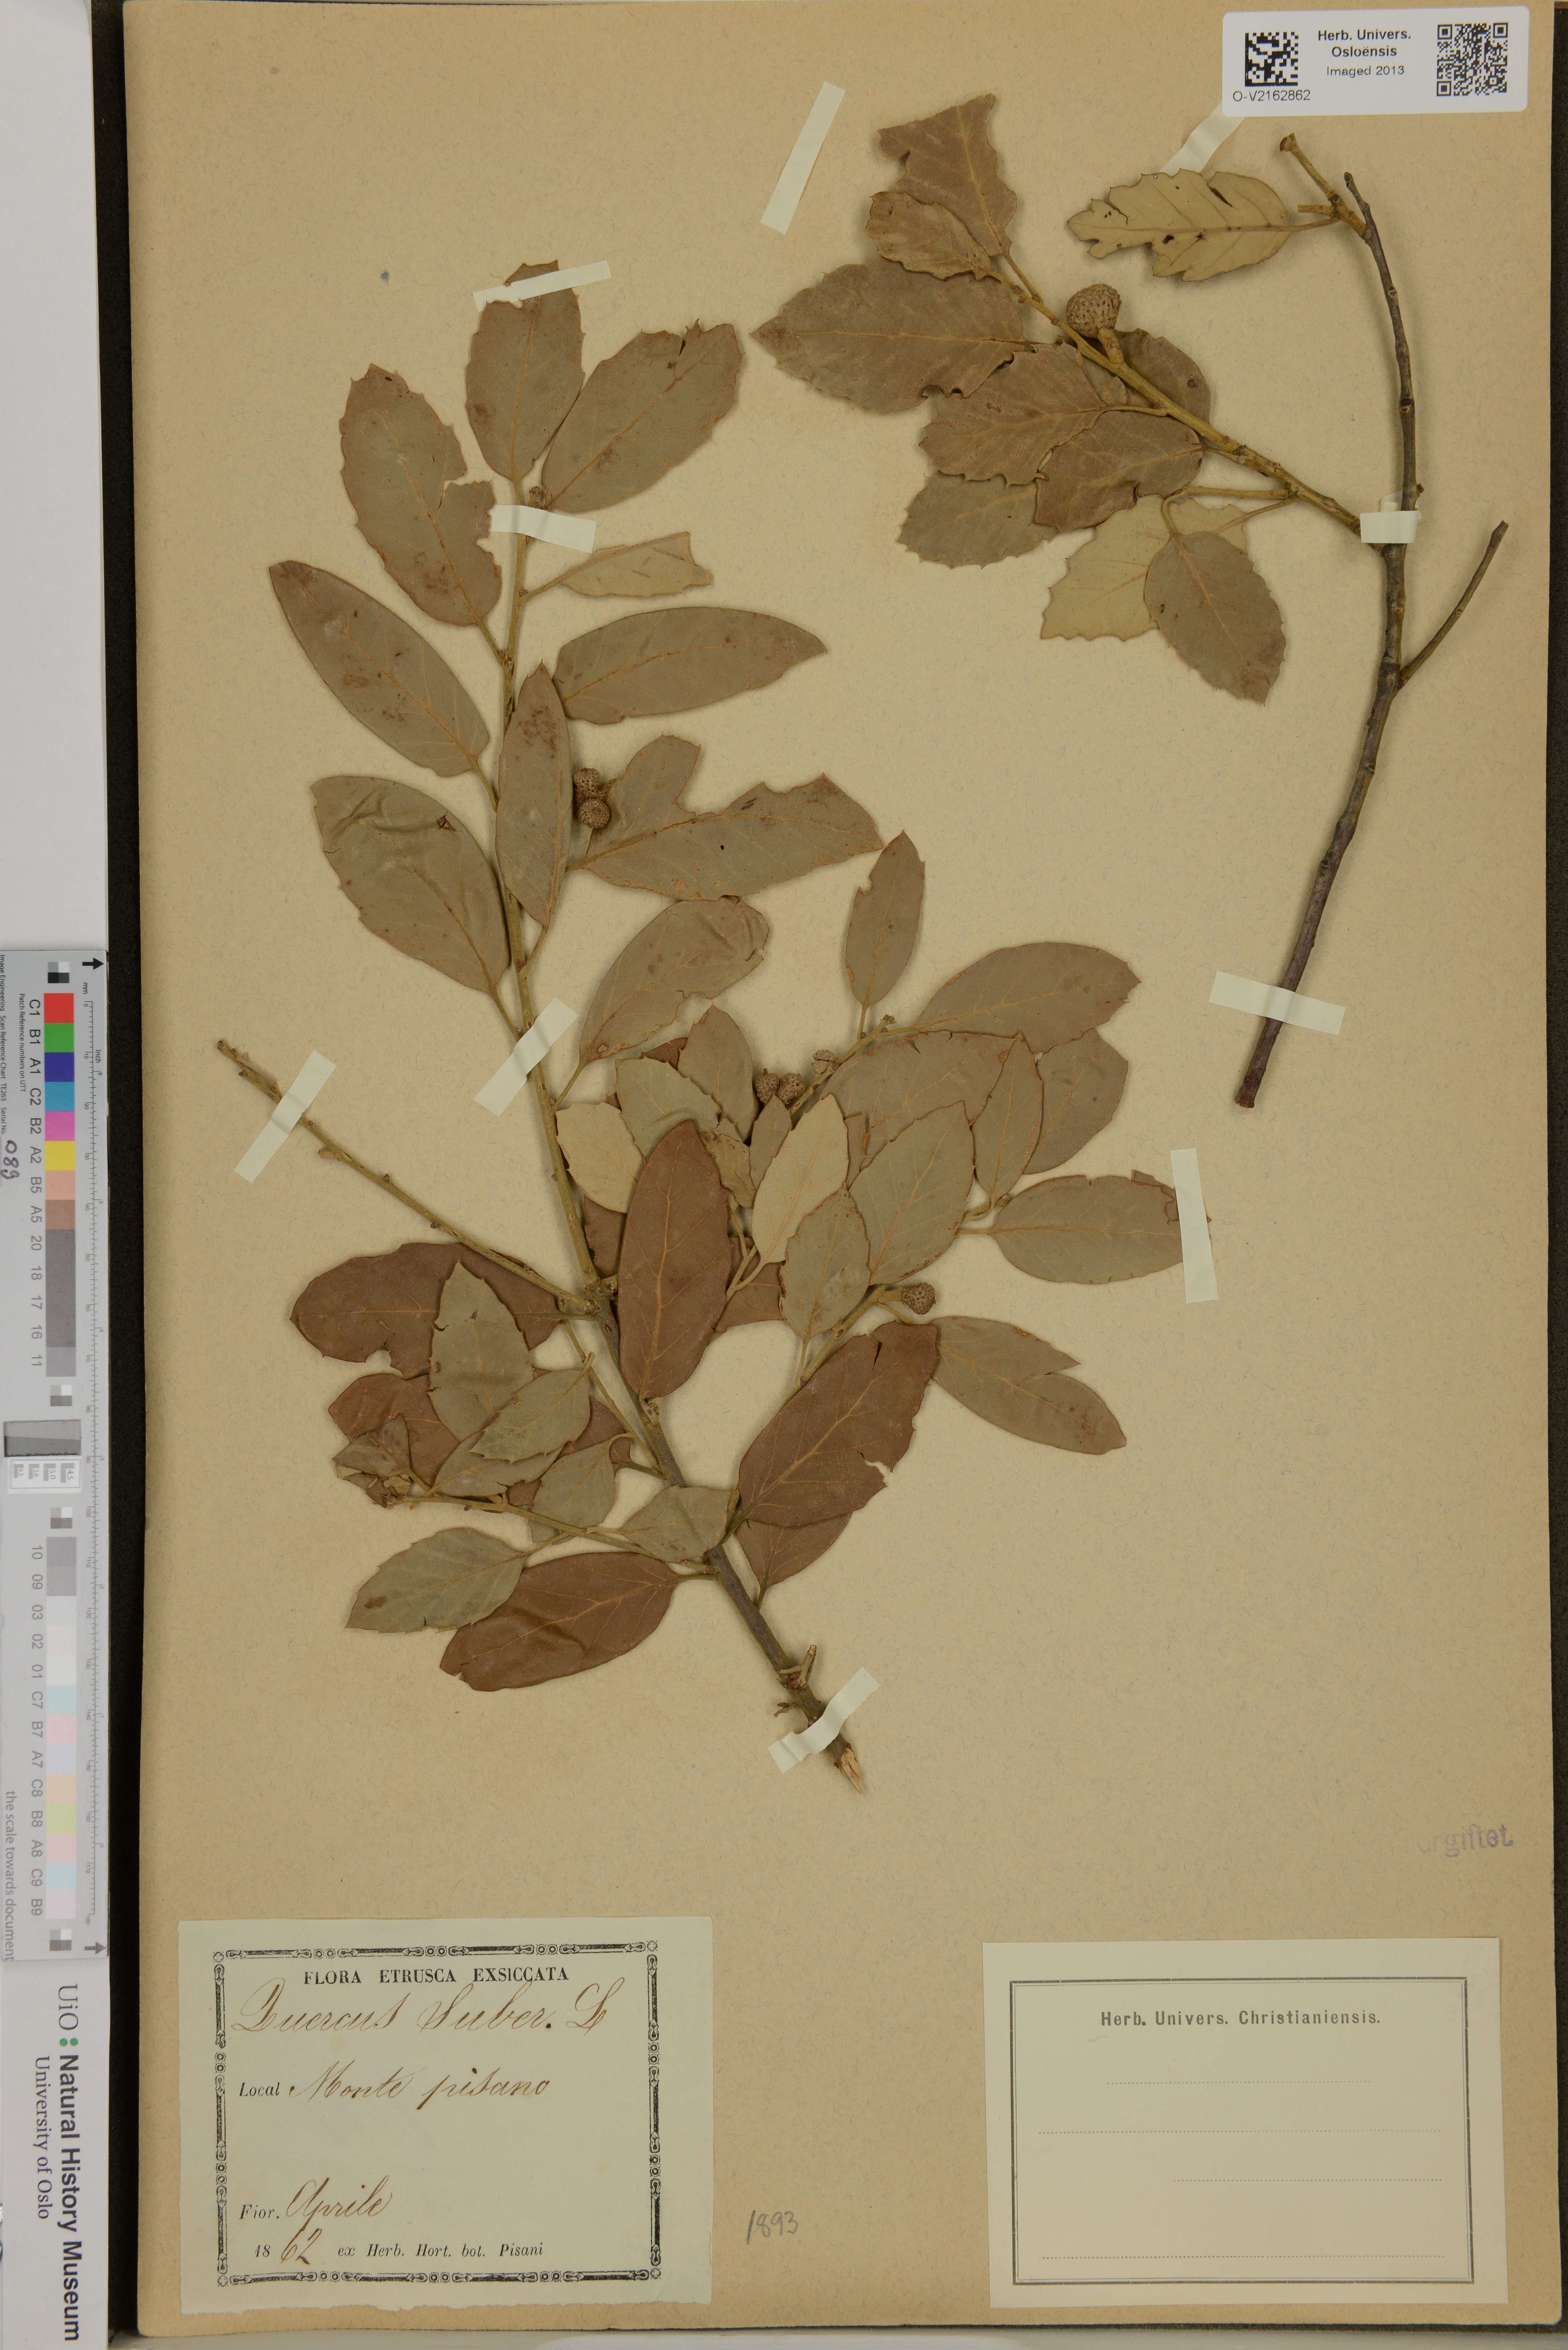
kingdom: Plantae
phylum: Tracheophyta
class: Magnoliopsida
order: Fagales
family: Fagaceae
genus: Quercus
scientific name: Quercus suber
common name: Cork oak
